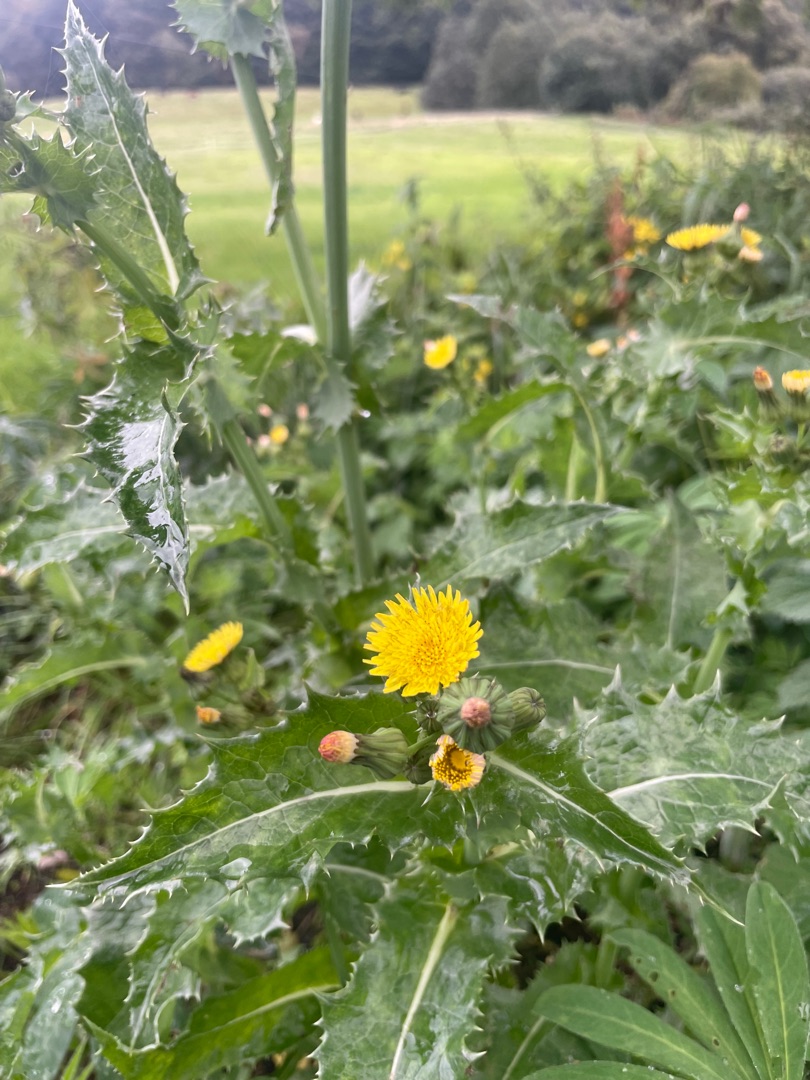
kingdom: Plantae
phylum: Tracheophyta
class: Magnoliopsida
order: Asterales
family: Asteraceae
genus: Sonchus
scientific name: Sonchus asper
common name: Ru svinemælk
